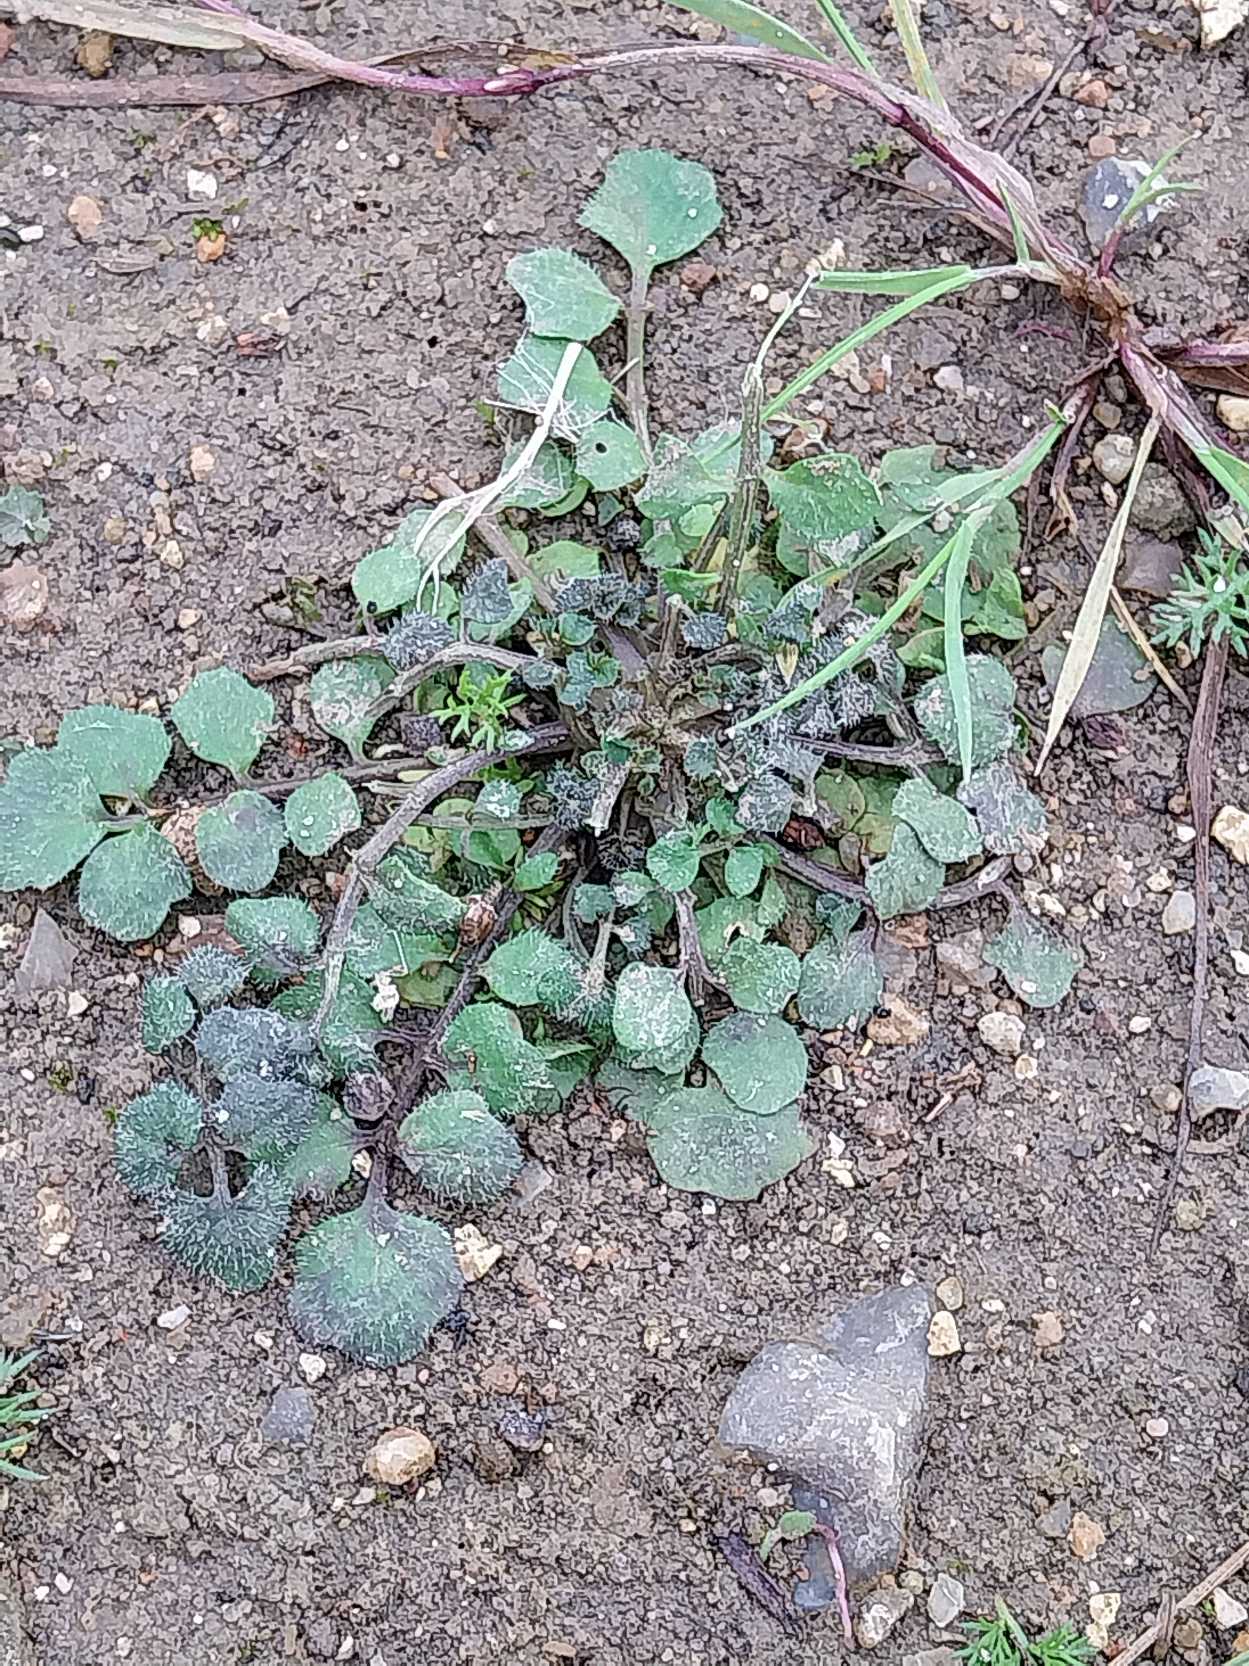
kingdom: Plantae
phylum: Tracheophyta
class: Magnoliopsida
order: Brassicales
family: Brassicaceae
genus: Cardamine
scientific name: Cardamine hirsuta
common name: Roset-springklap
